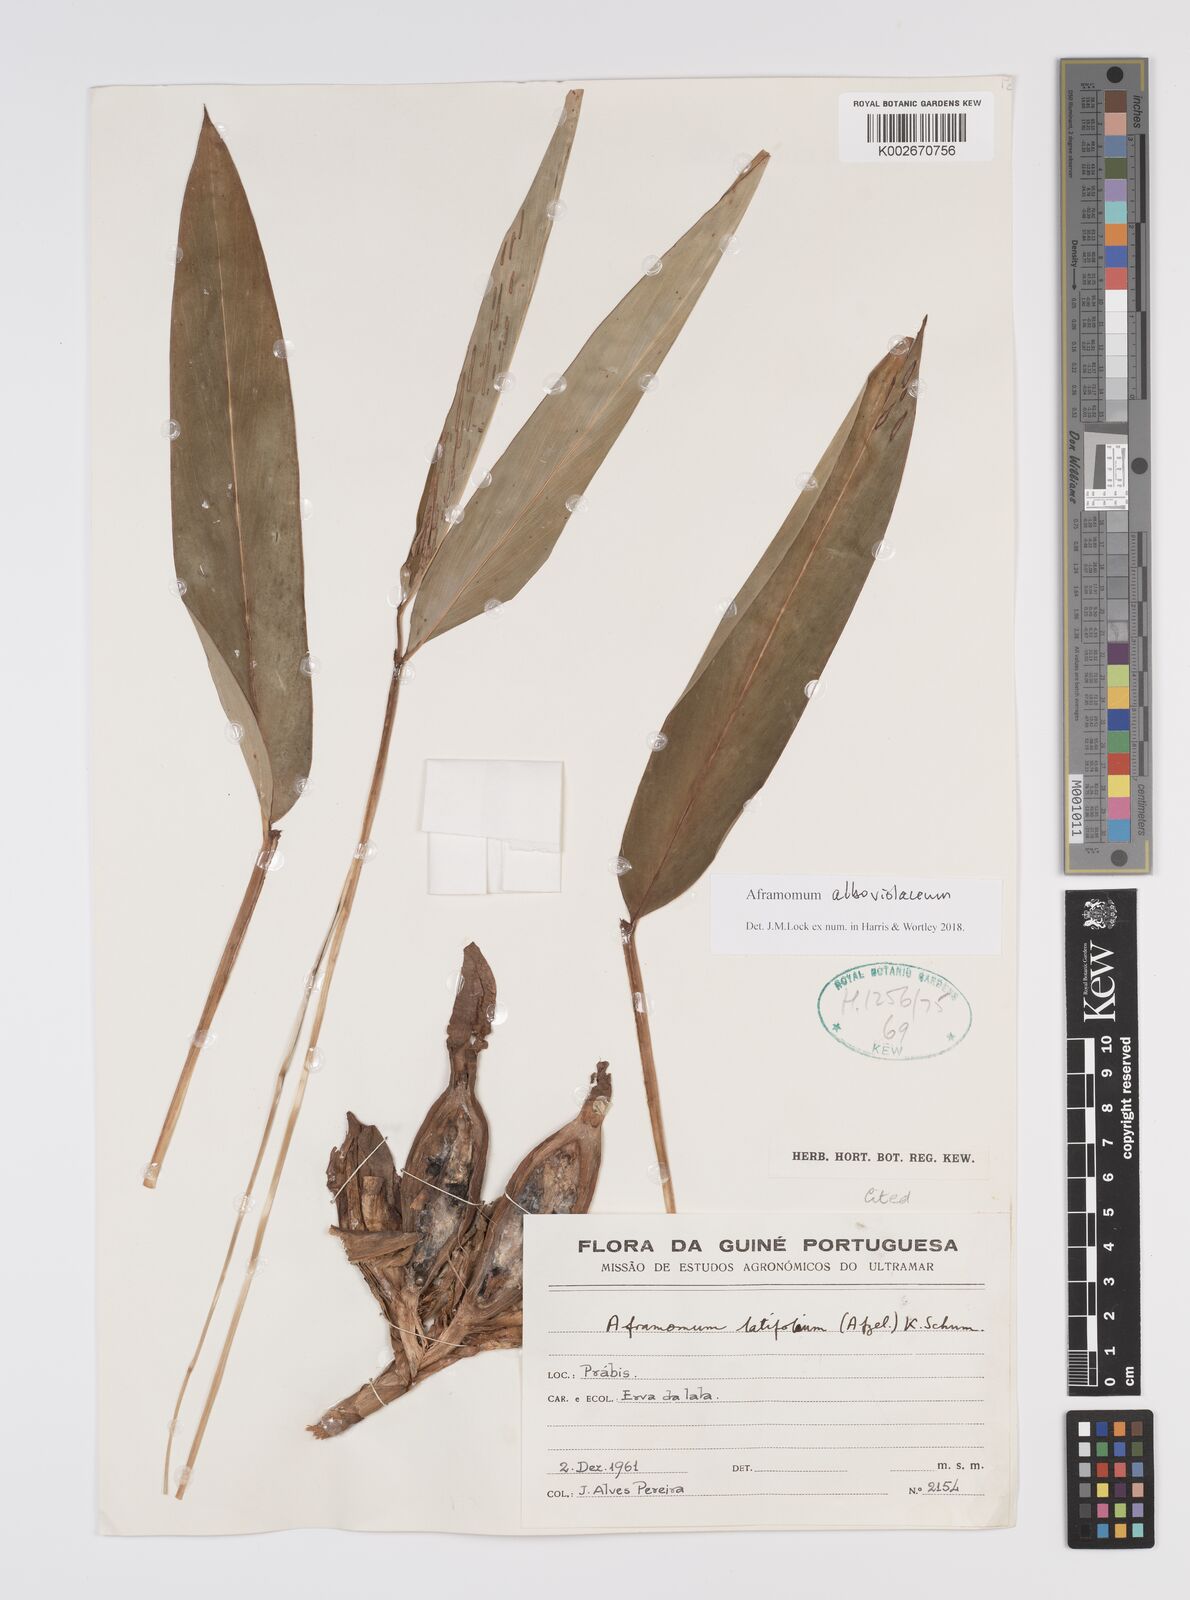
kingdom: Plantae
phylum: Tracheophyta
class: Liliopsida
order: Zingiberales
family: Zingiberaceae
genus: Aframomum
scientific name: Aframomum alboviolaceum
